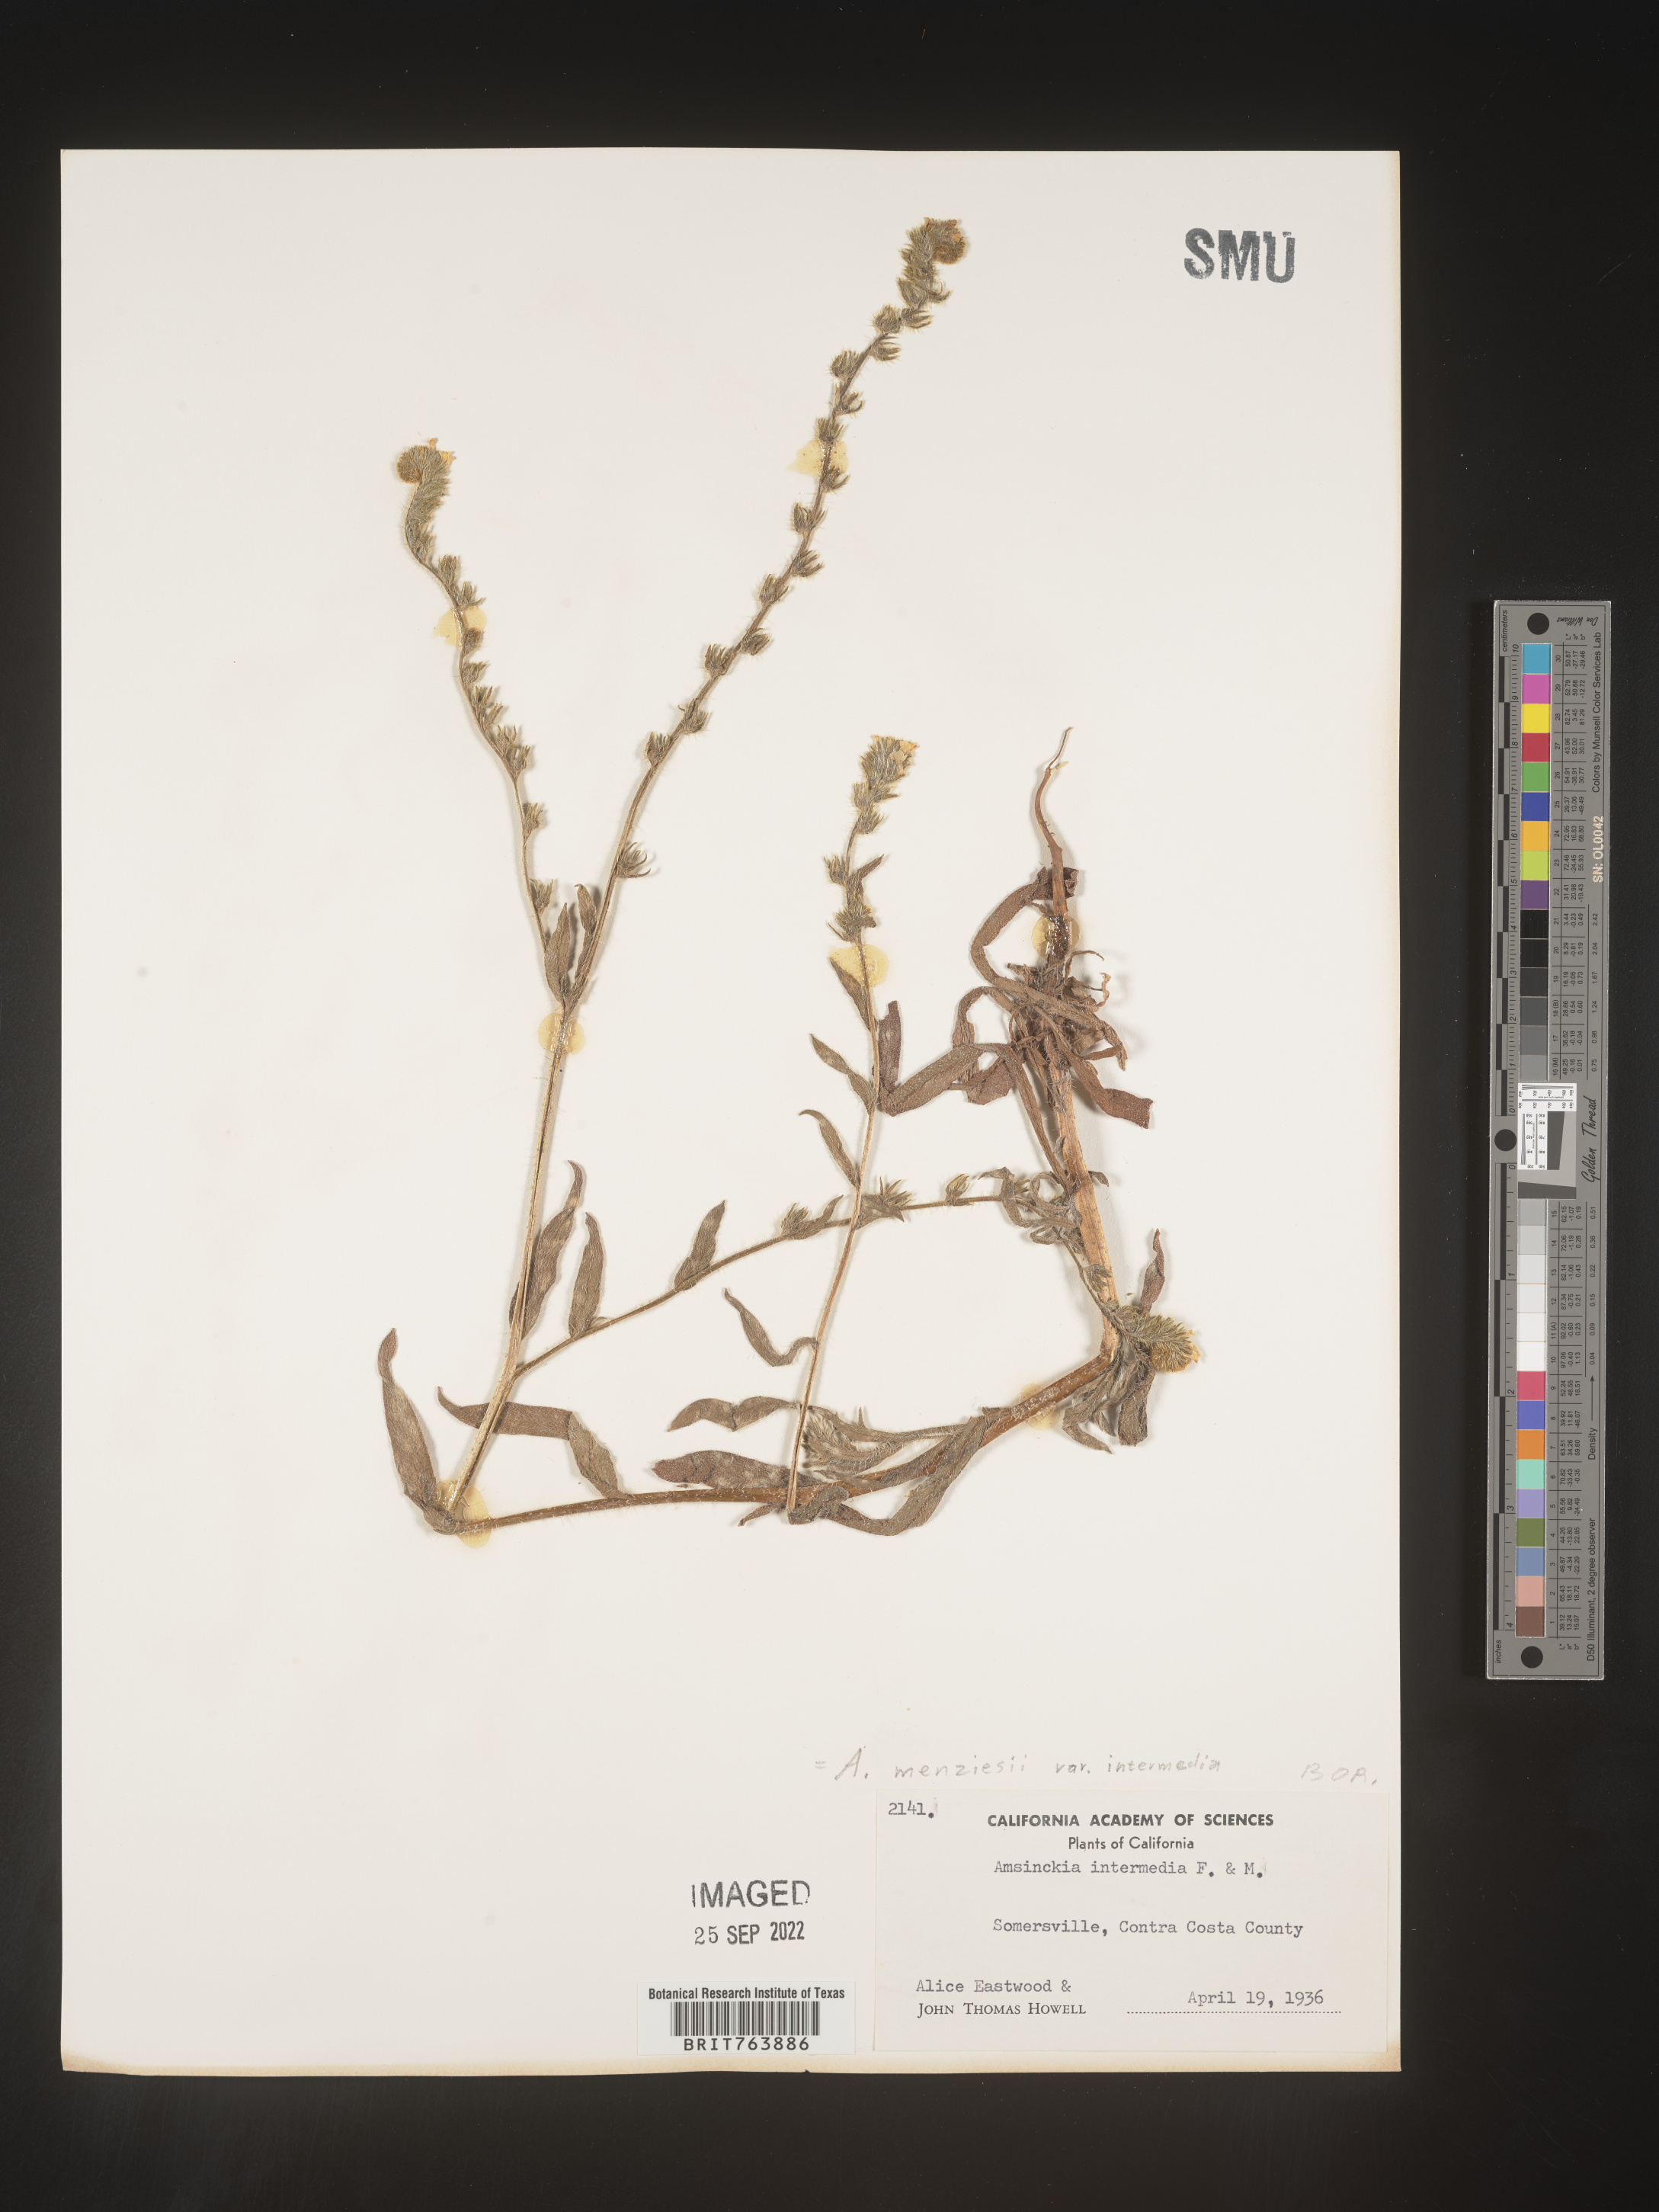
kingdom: Plantae
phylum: Tracheophyta
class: Magnoliopsida
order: Boraginales
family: Boraginaceae
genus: Amsinckia
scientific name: Amsinckia menziesii
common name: Menzies' fiddleneck
